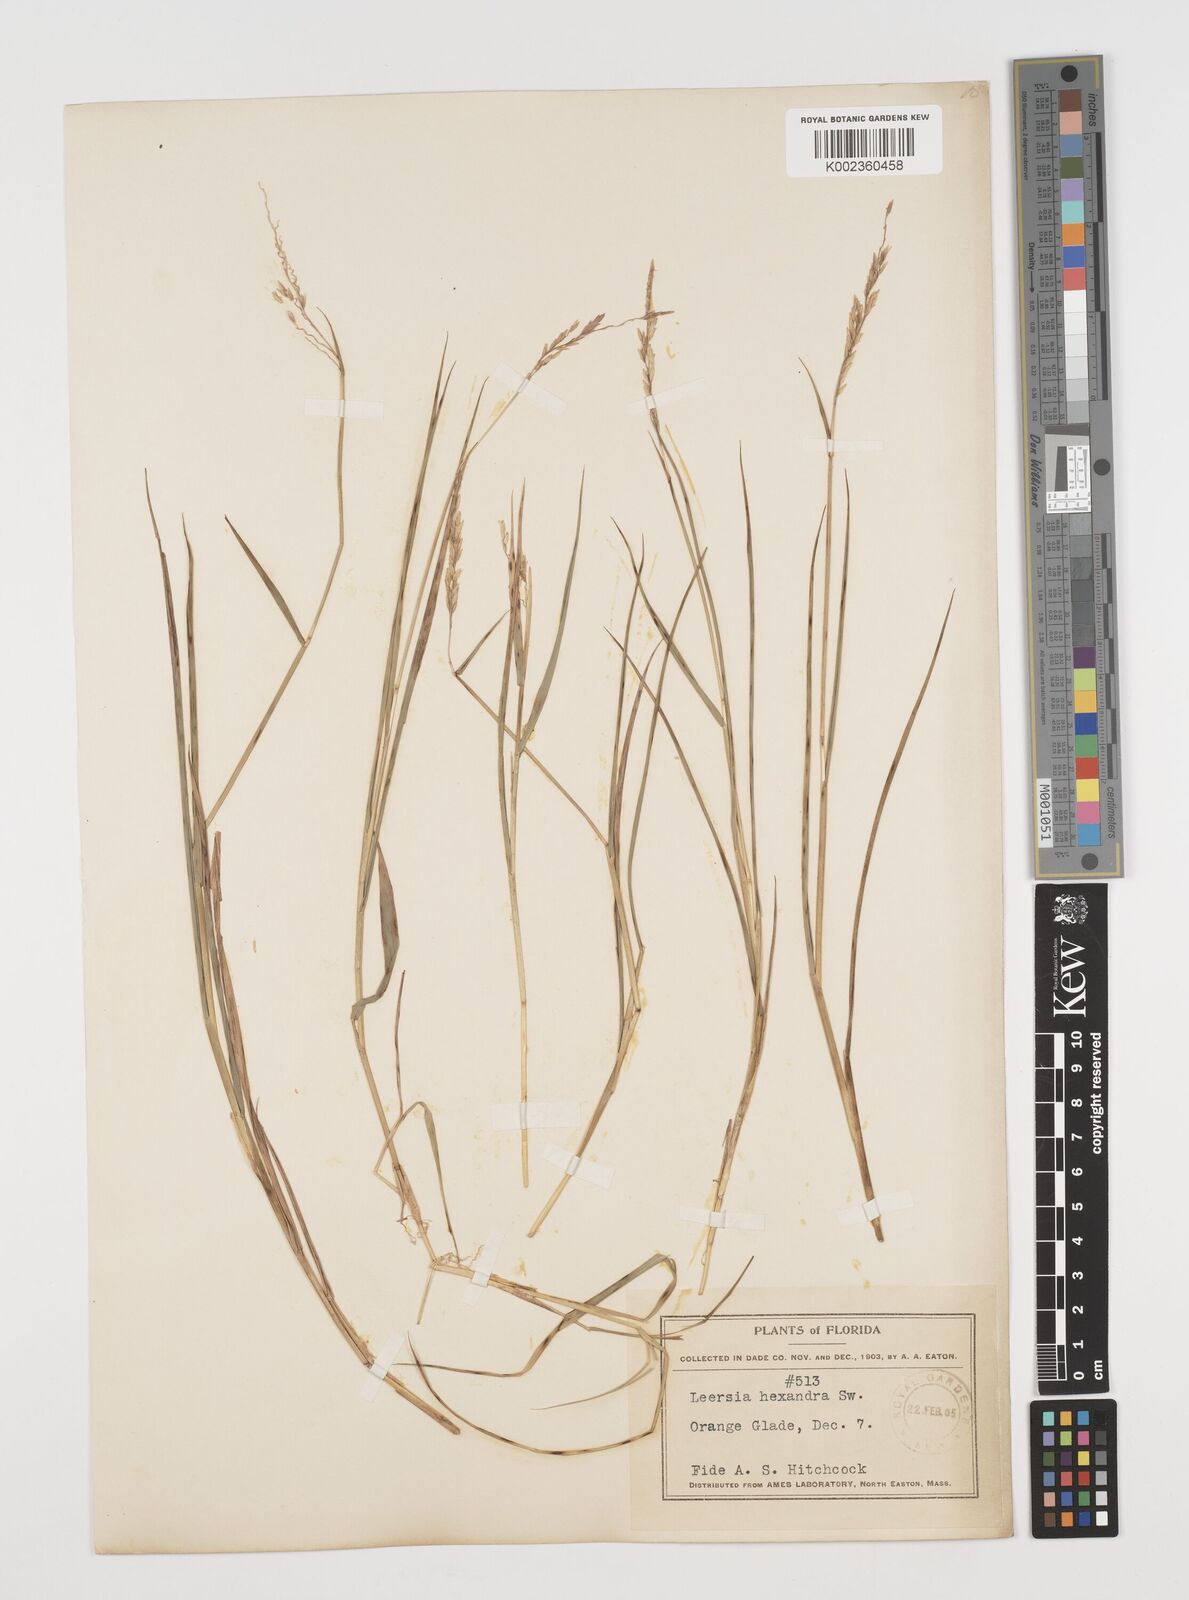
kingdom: Plantae
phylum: Tracheophyta
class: Liliopsida
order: Poales
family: Poaceae
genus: Leersia
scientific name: Leersia hexandra
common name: Southern cut grass
